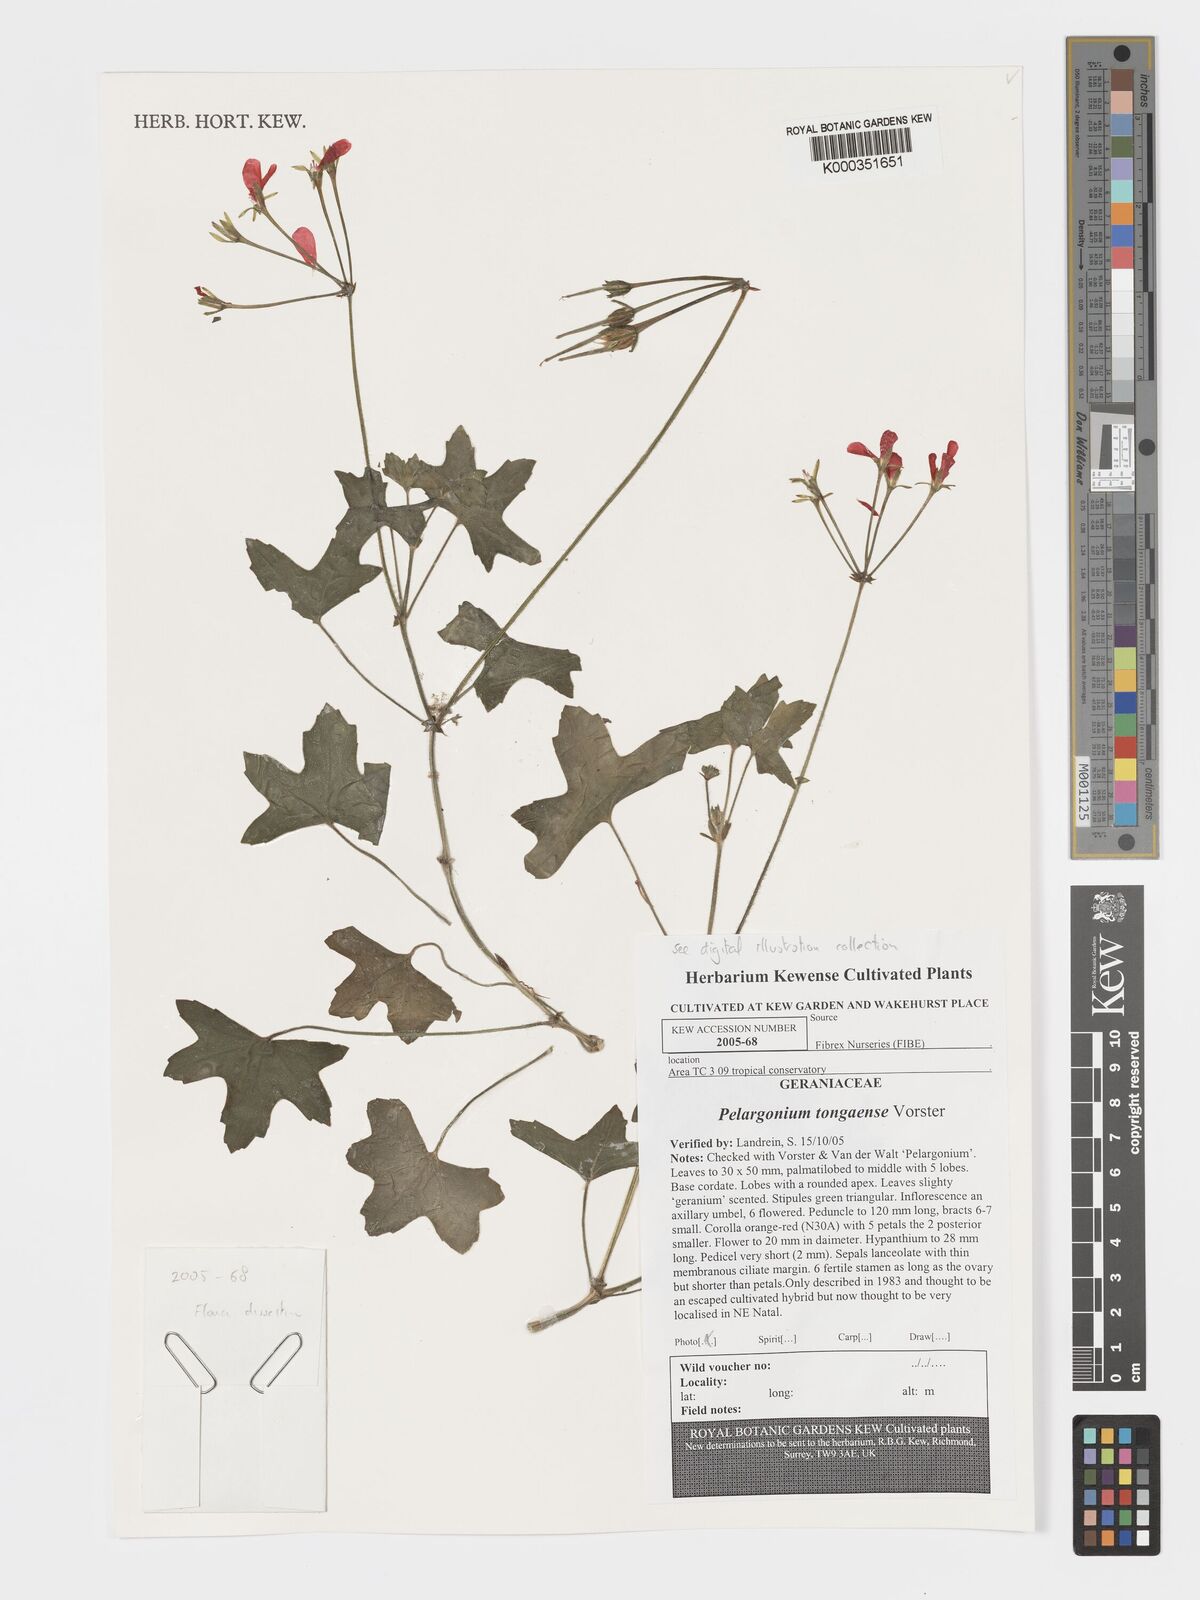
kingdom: Plantae
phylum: Tracheophyta
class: Magnoliopsida
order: Geraniales
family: Geraniaceae
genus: Pelargonium
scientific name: Pelargonium tongaense
